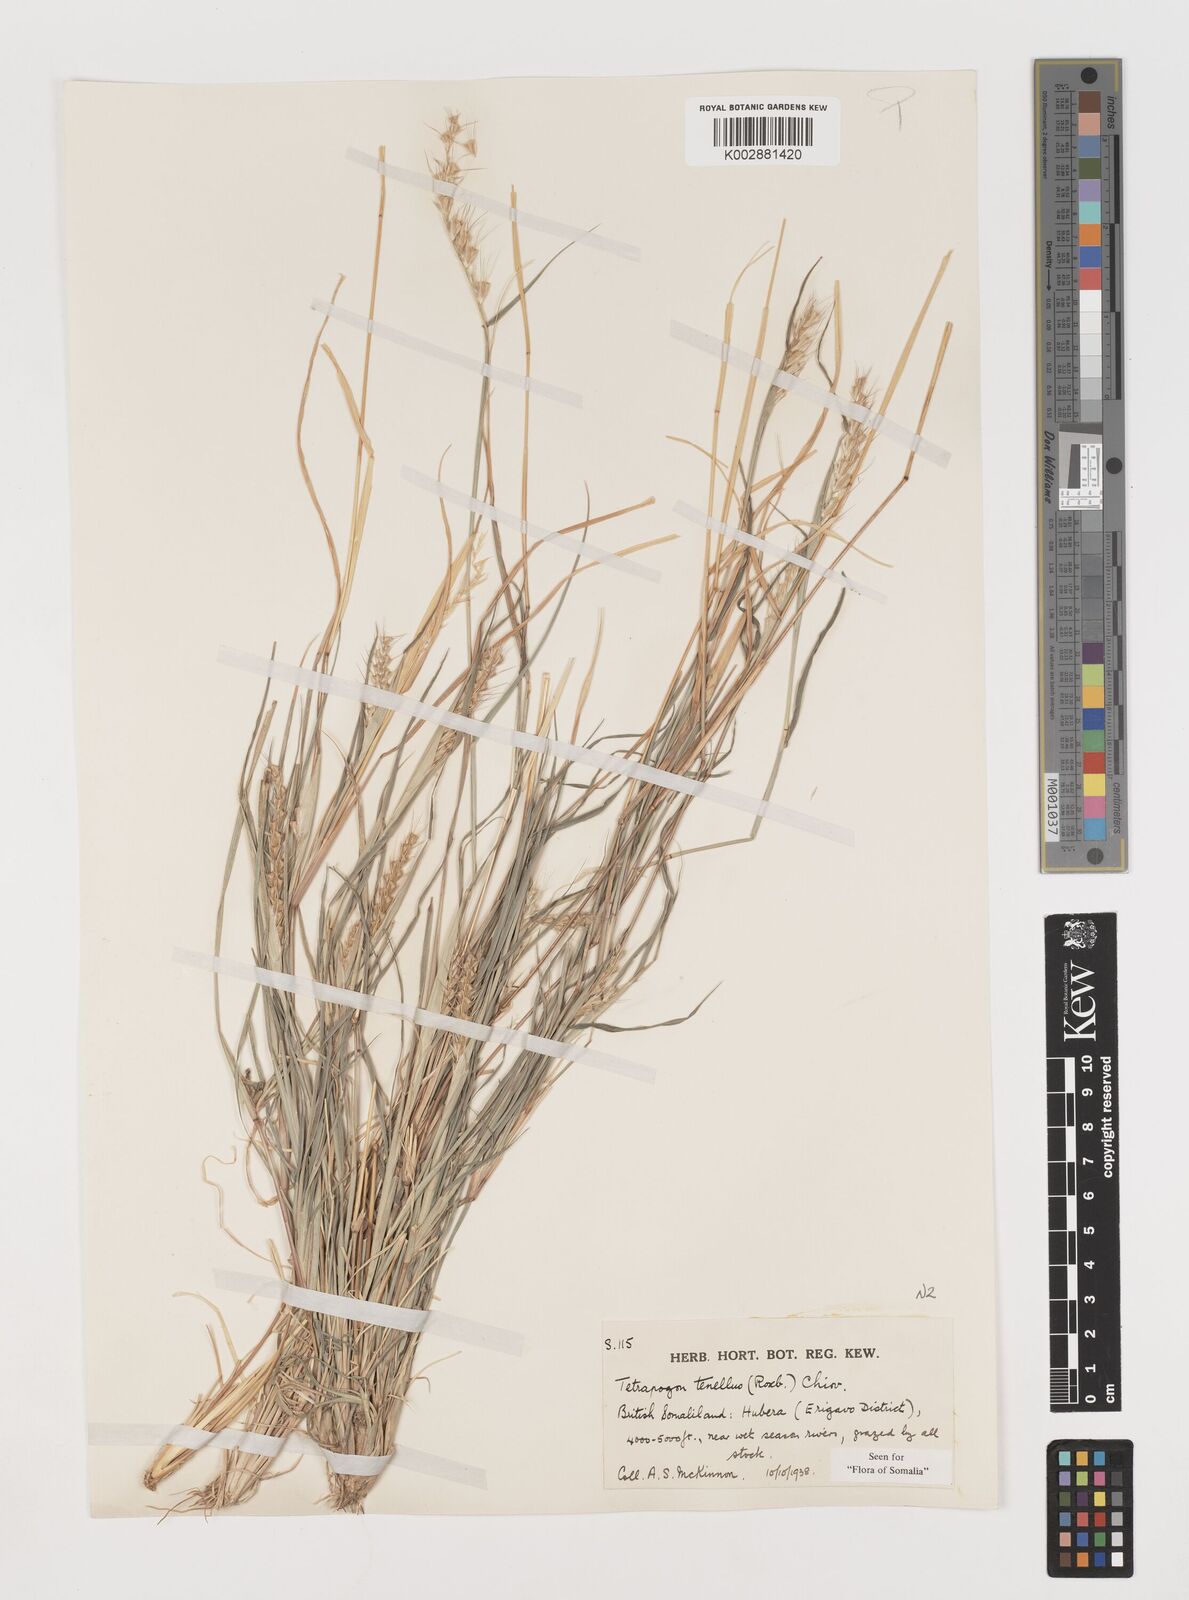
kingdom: Plantae
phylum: Tracheophyta
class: Liliopsida
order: Poales
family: Poaceae
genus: Tetrapogon
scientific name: Tetrapogon tenellus
